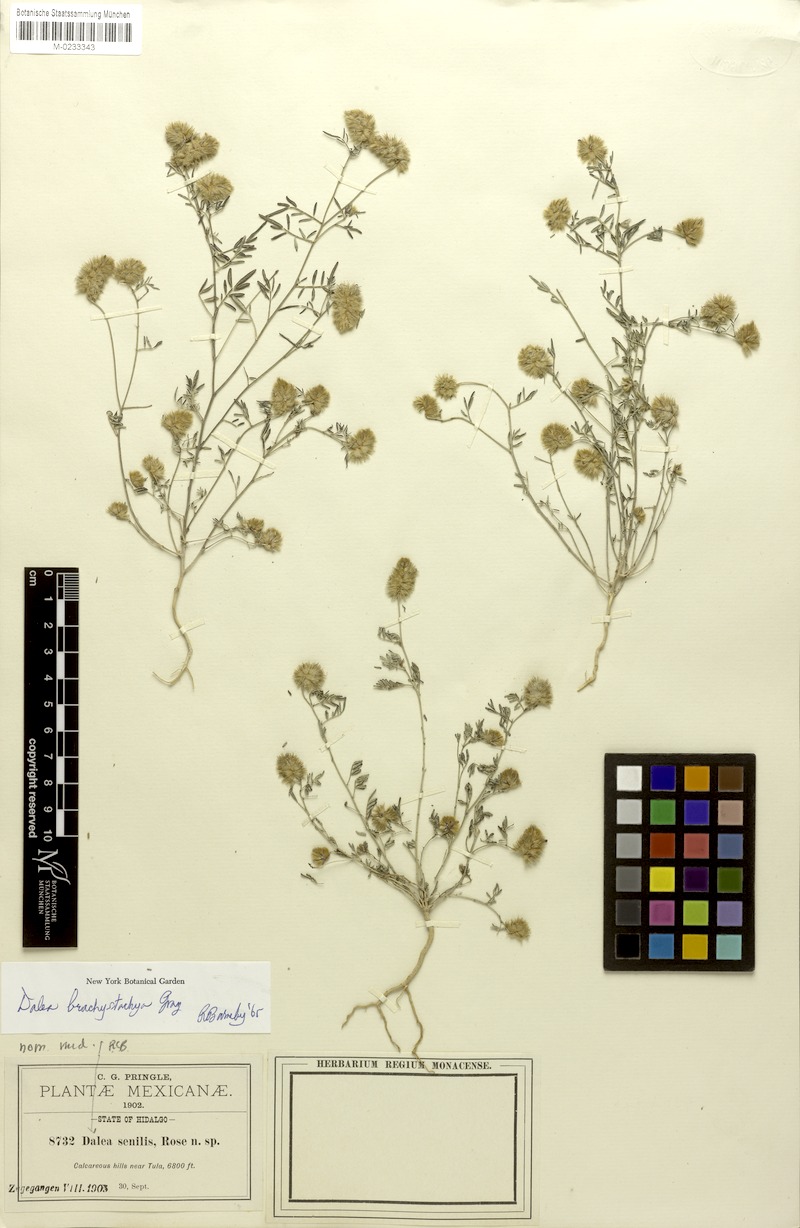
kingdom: Plantae
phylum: Tracheophyta
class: Magnoliopsida
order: Fabales
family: Fabaceae
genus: Dalea
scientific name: Dalea brachystachya
